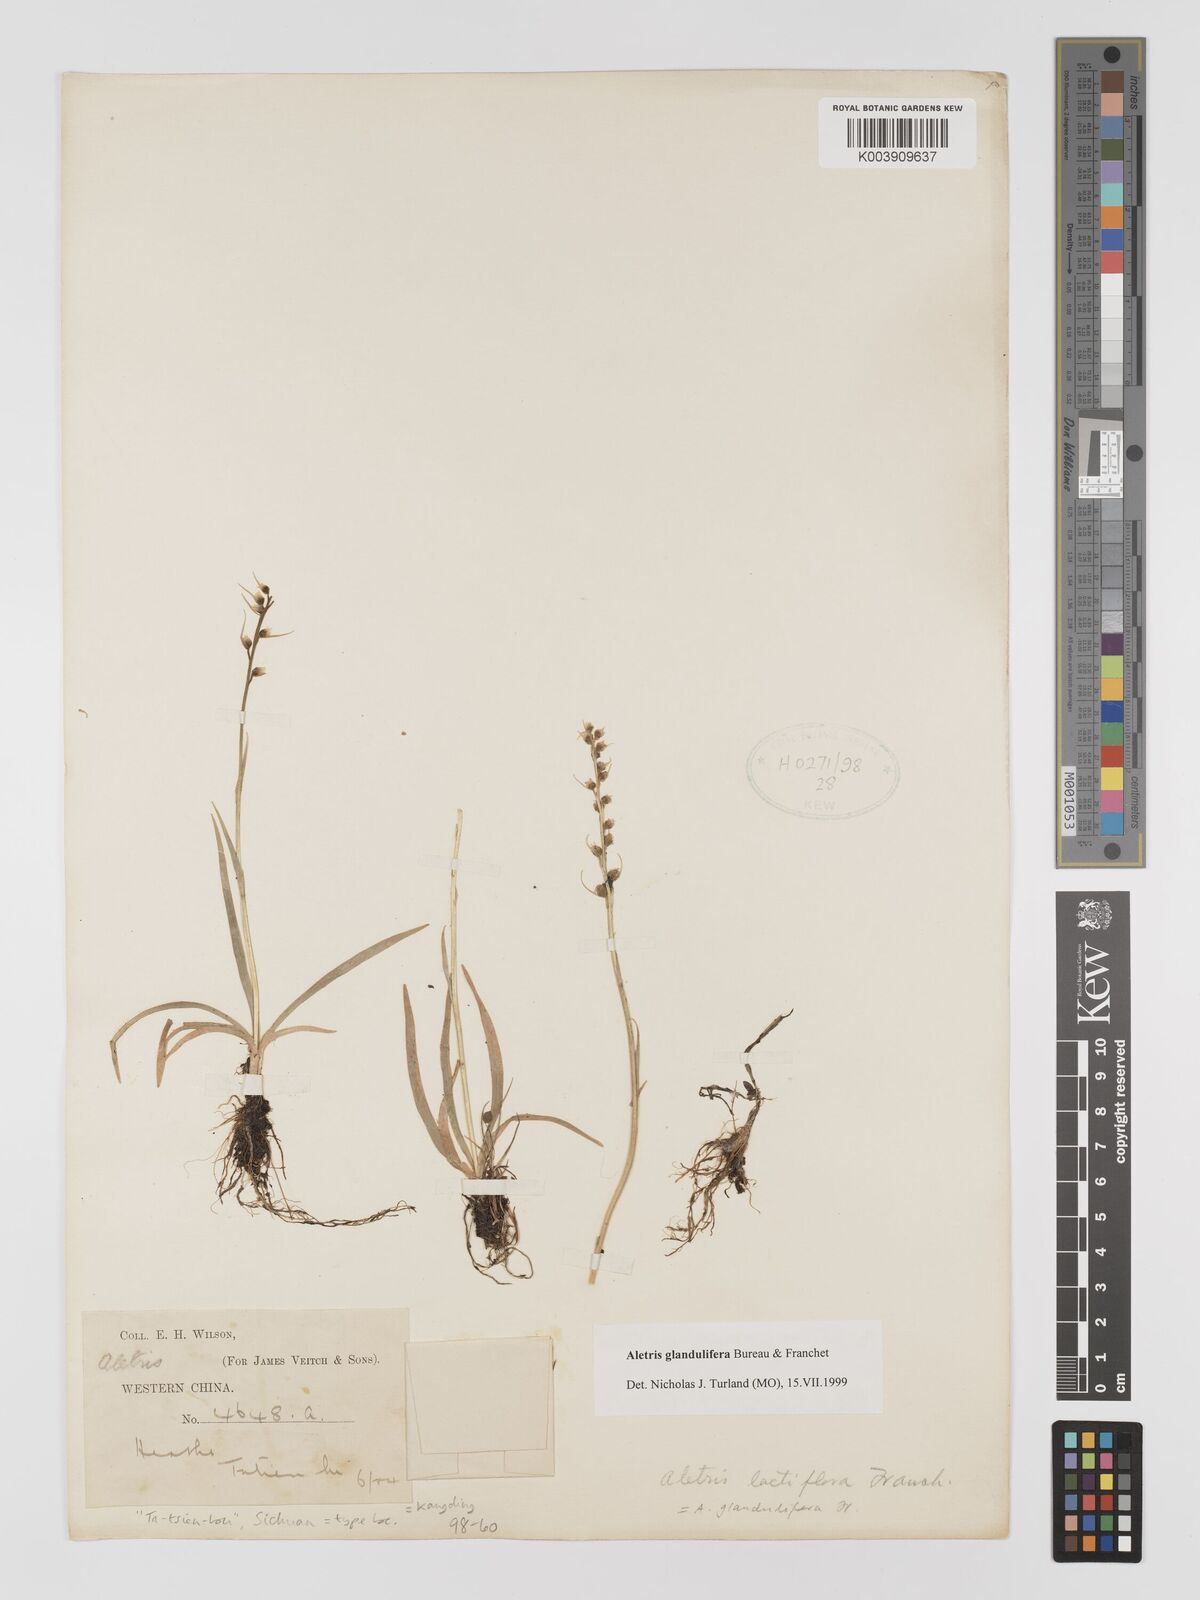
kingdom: Plantae
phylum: Tracheophyta
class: Liliopsida
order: Dioscoreales
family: Nartheciaceae
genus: Aletris
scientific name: Aletris glandulifera
